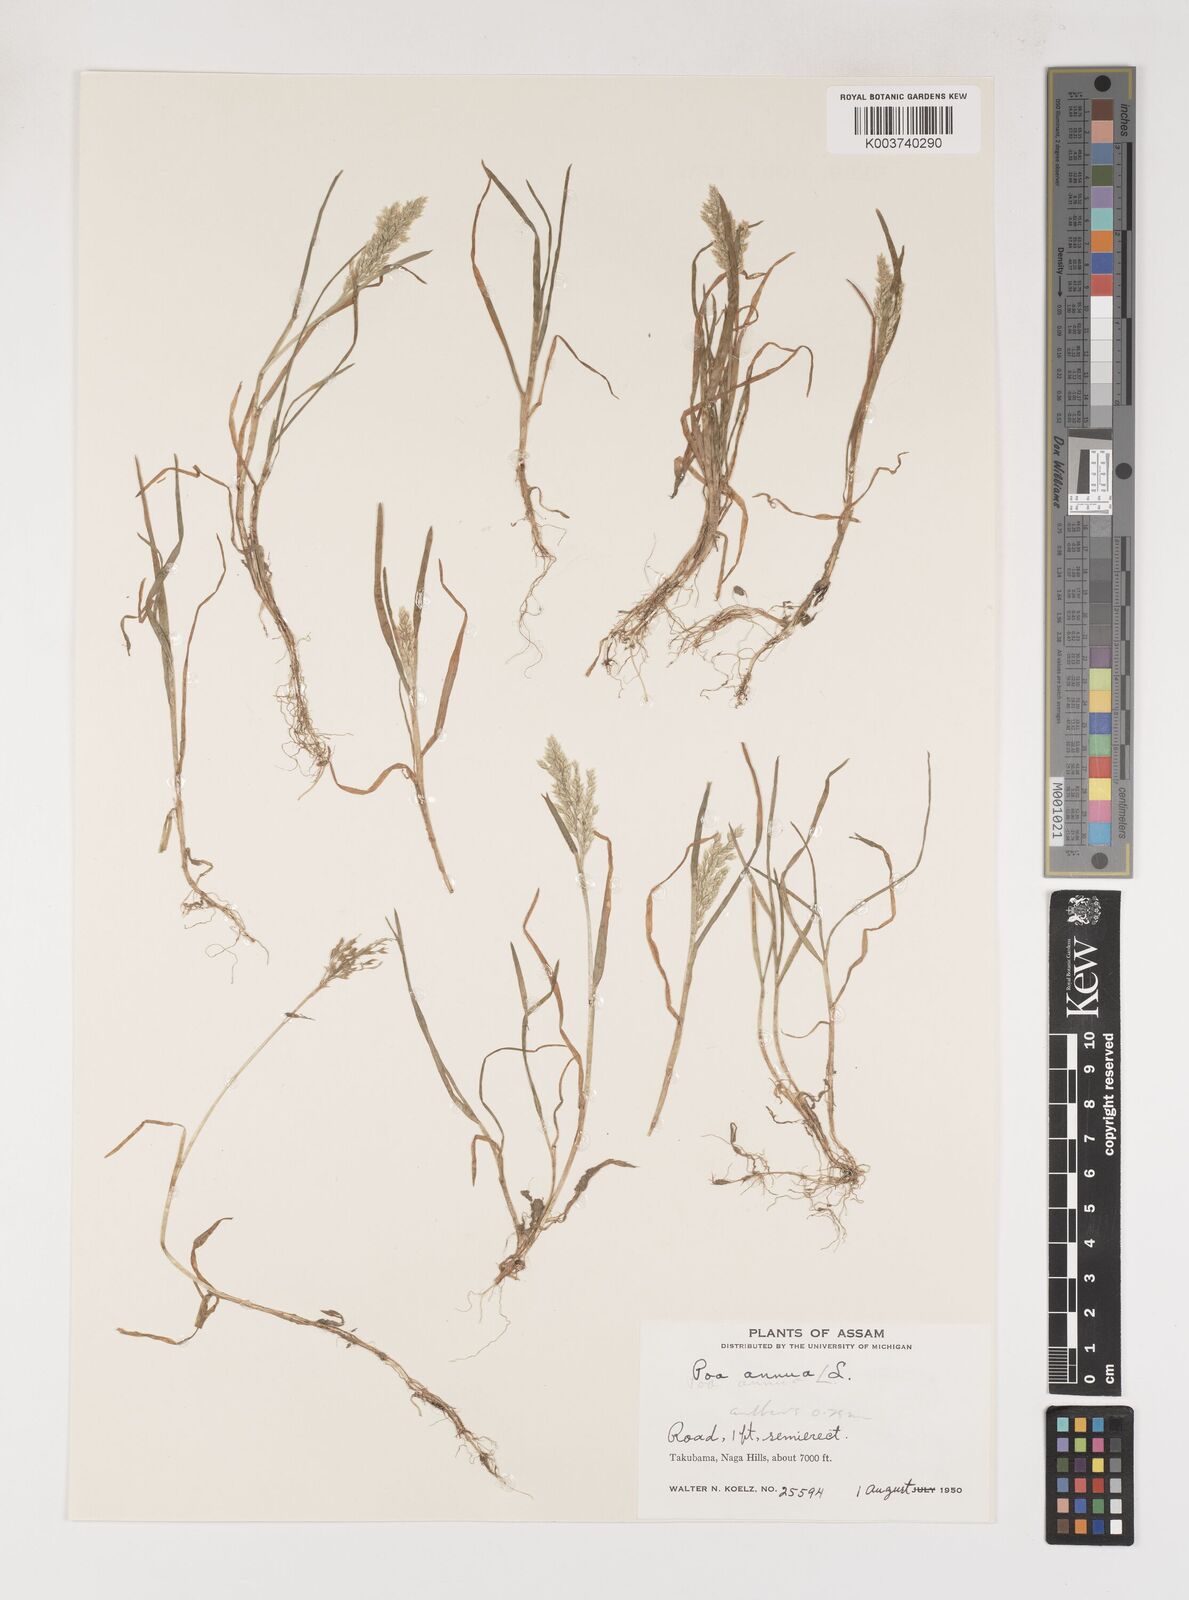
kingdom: Plantae
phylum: Tracheophyta
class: Liliopsida
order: Poales
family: Poaceae
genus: Poa
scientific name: Poa annua
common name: Annual bluegrass
